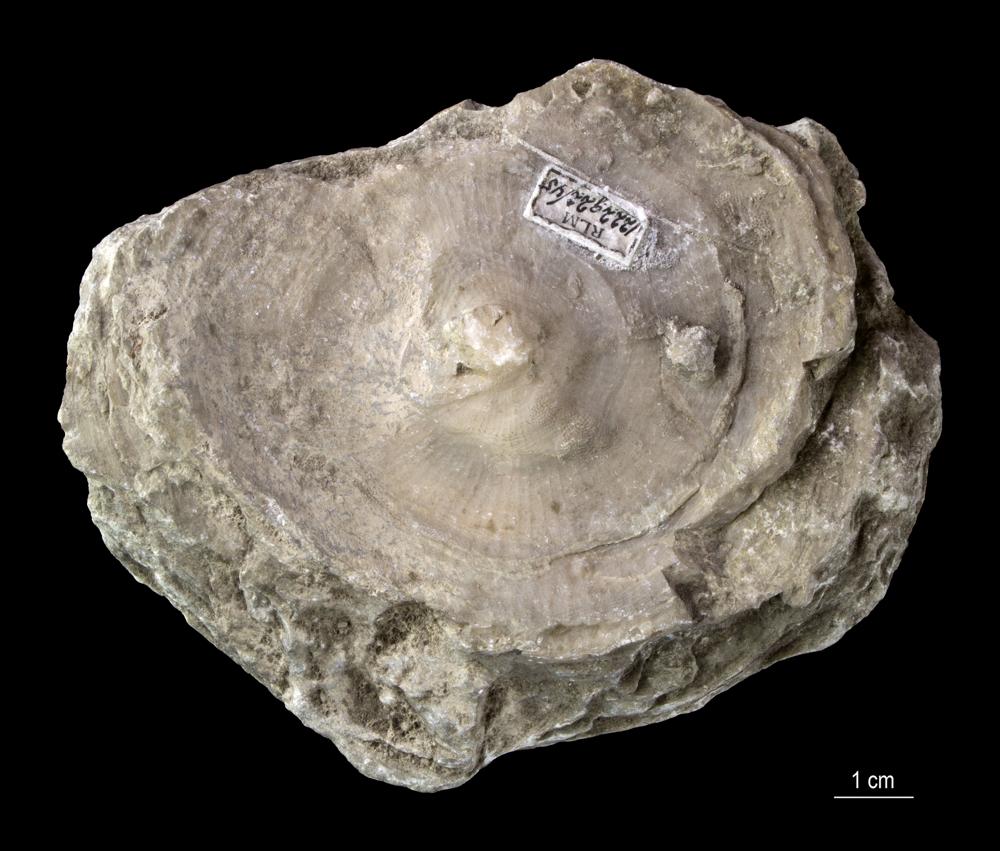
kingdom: Animalia
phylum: Cnidaria
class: Anthozoa
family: Kodonophyllidae
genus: Schlotheimophyllum
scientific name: Schlotheimophyllum
